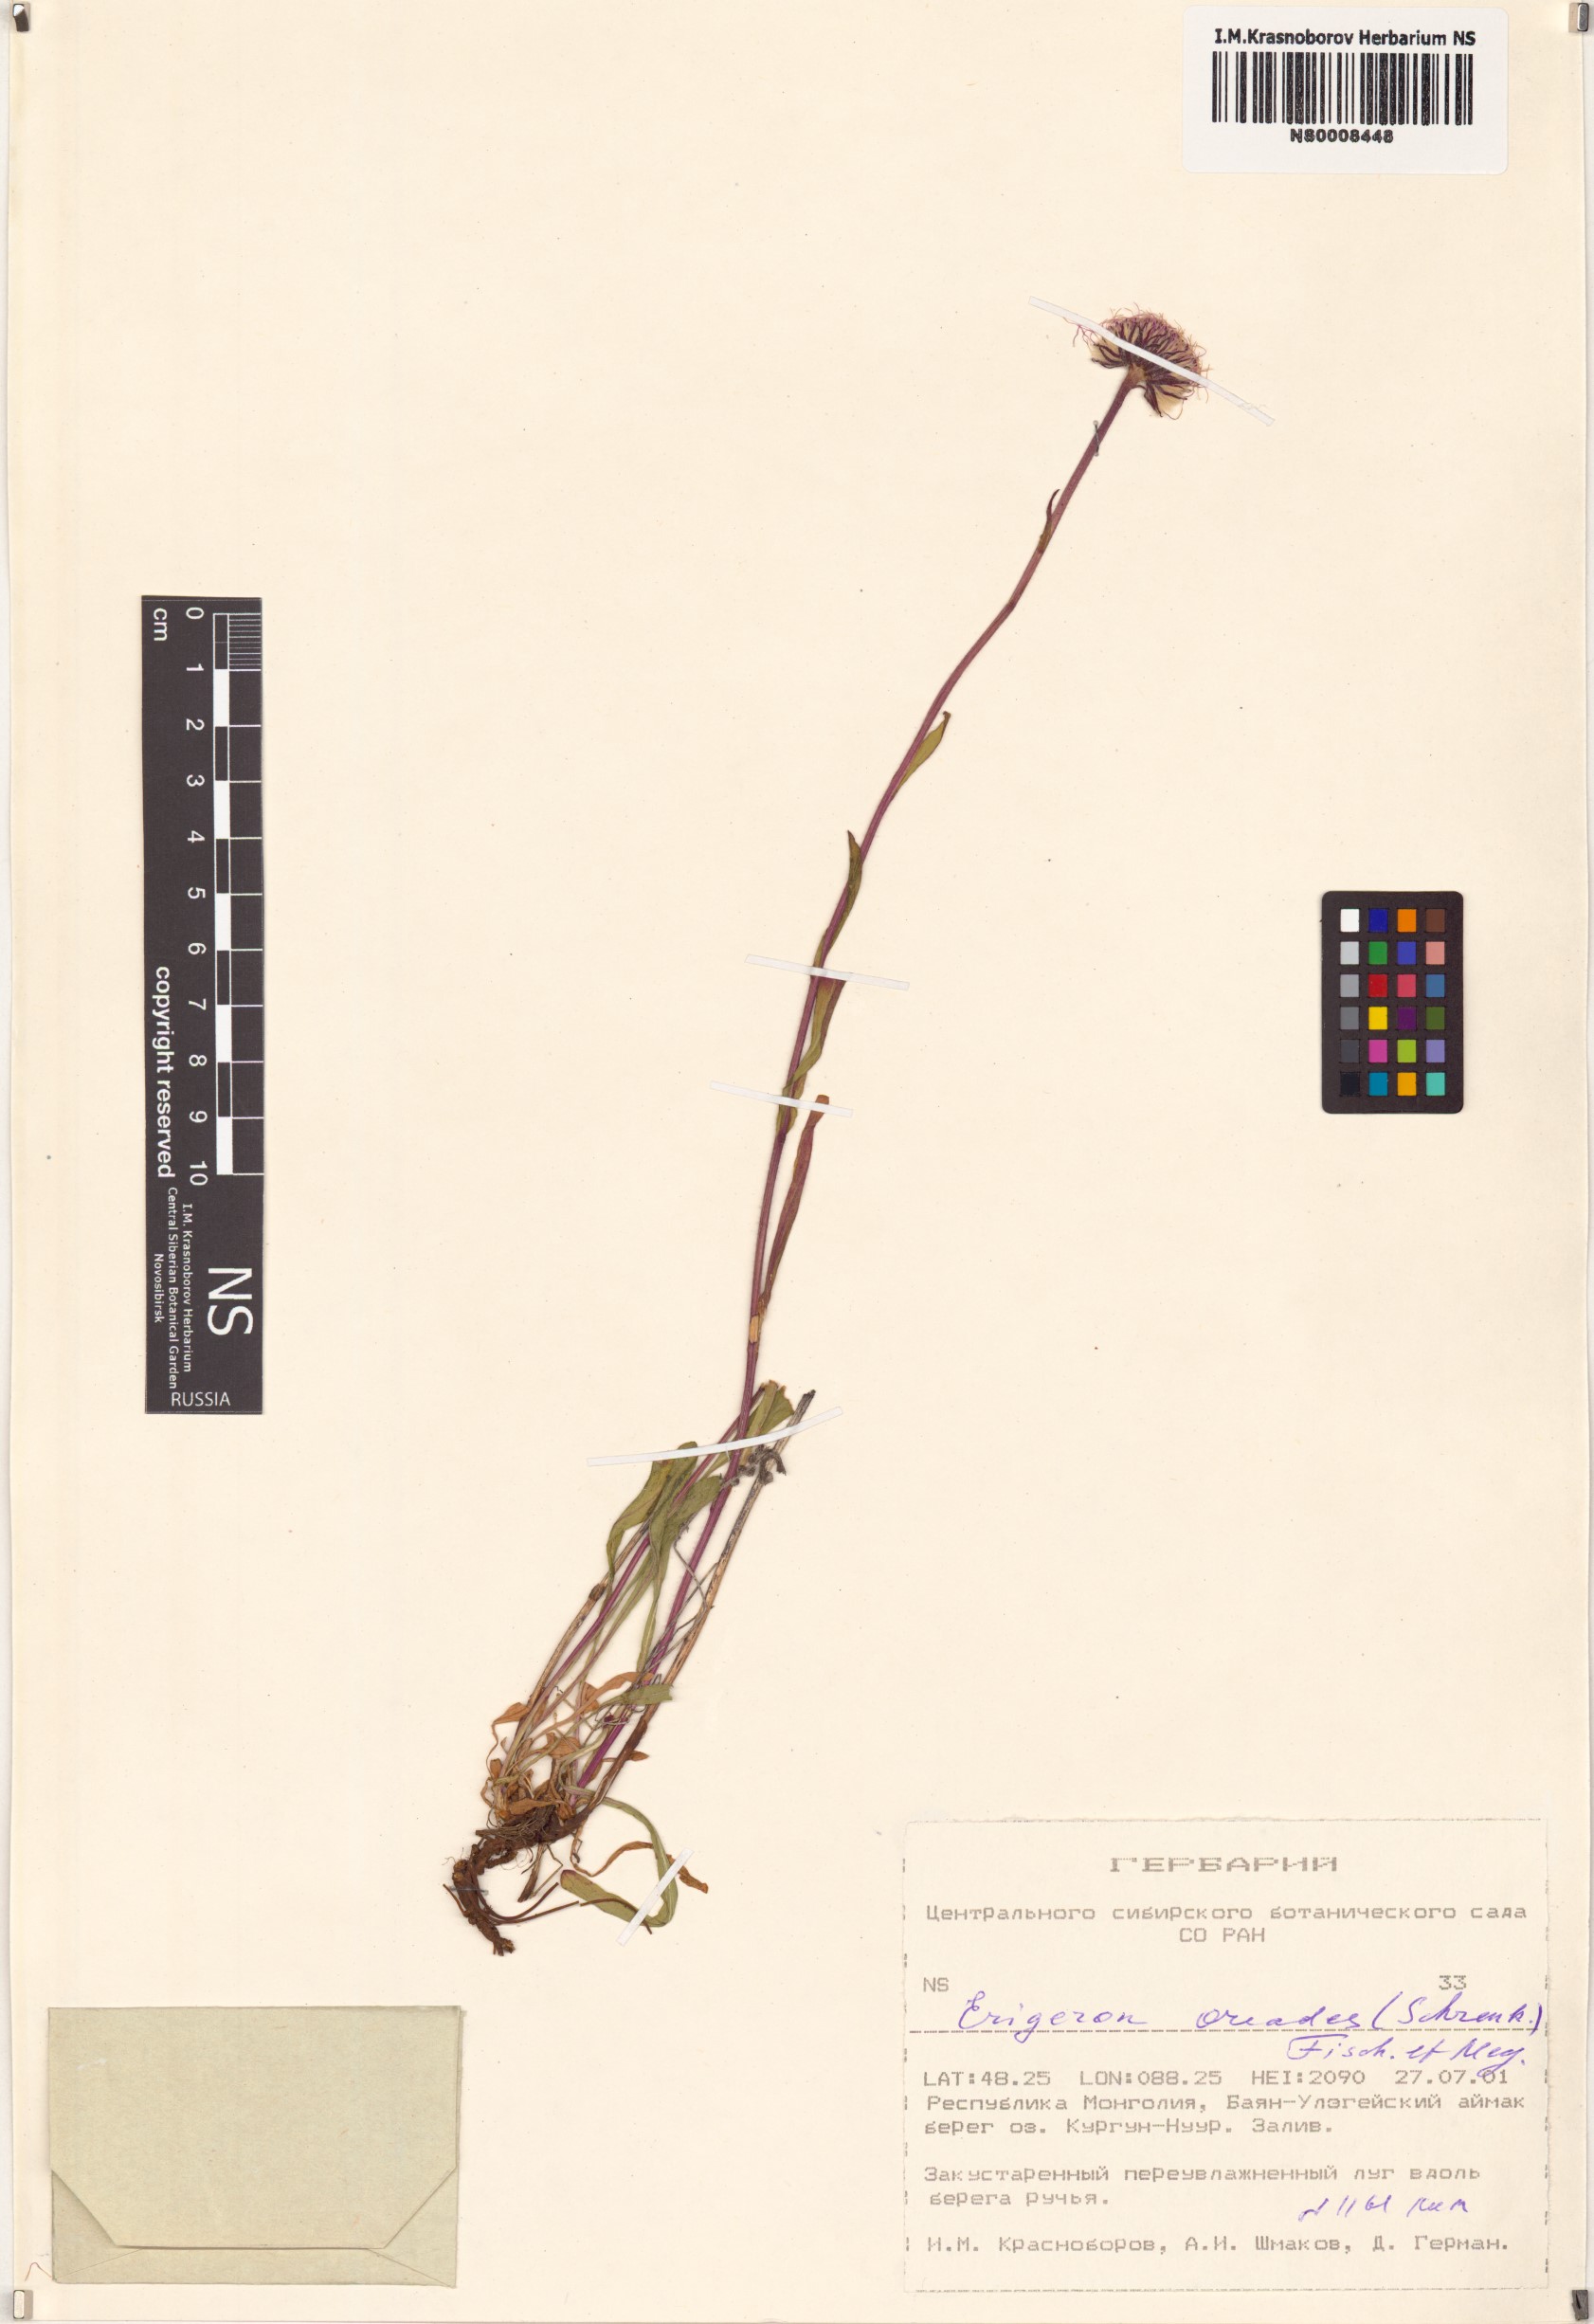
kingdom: Plantae
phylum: Tracheophyta
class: Magnoliopsida
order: Asterales
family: Asteraceae
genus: Erigeron
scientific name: Erigeron oreades
